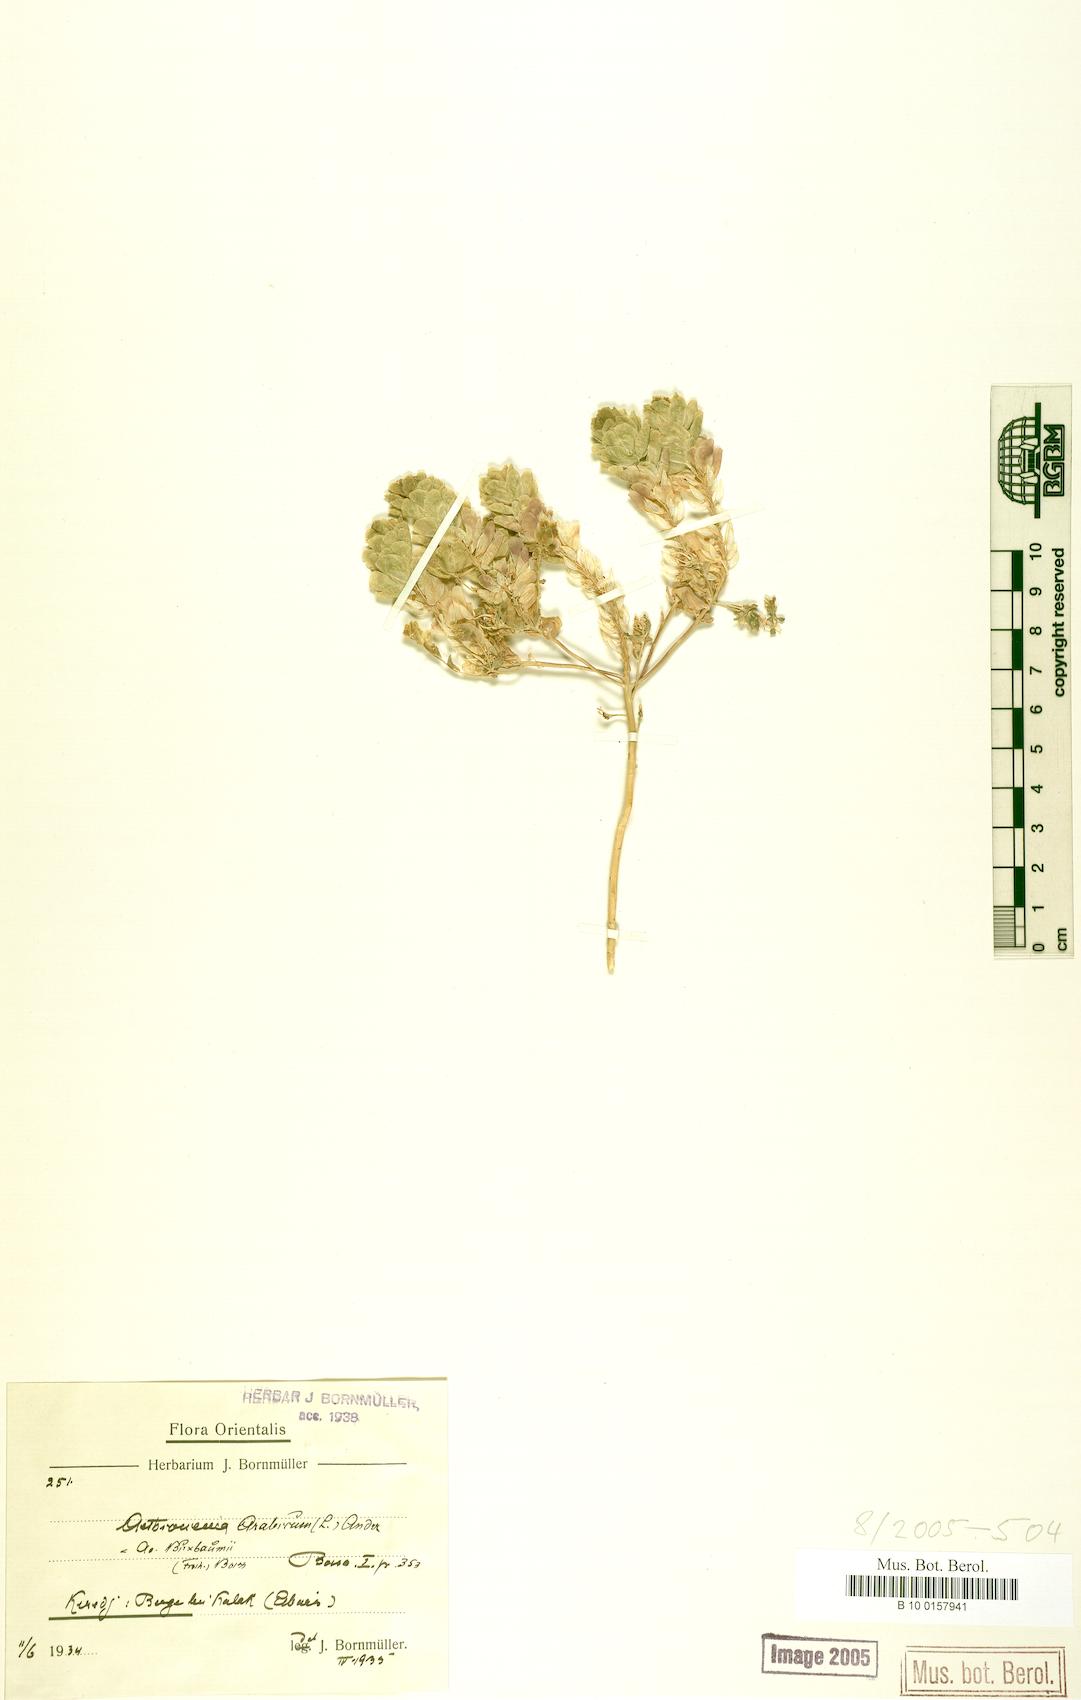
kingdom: Plantae
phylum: Tracheophyta
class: Magnoliopsida
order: Brassicales
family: Brassicaceae
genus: Aethionema
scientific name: Aethionema arabicum
